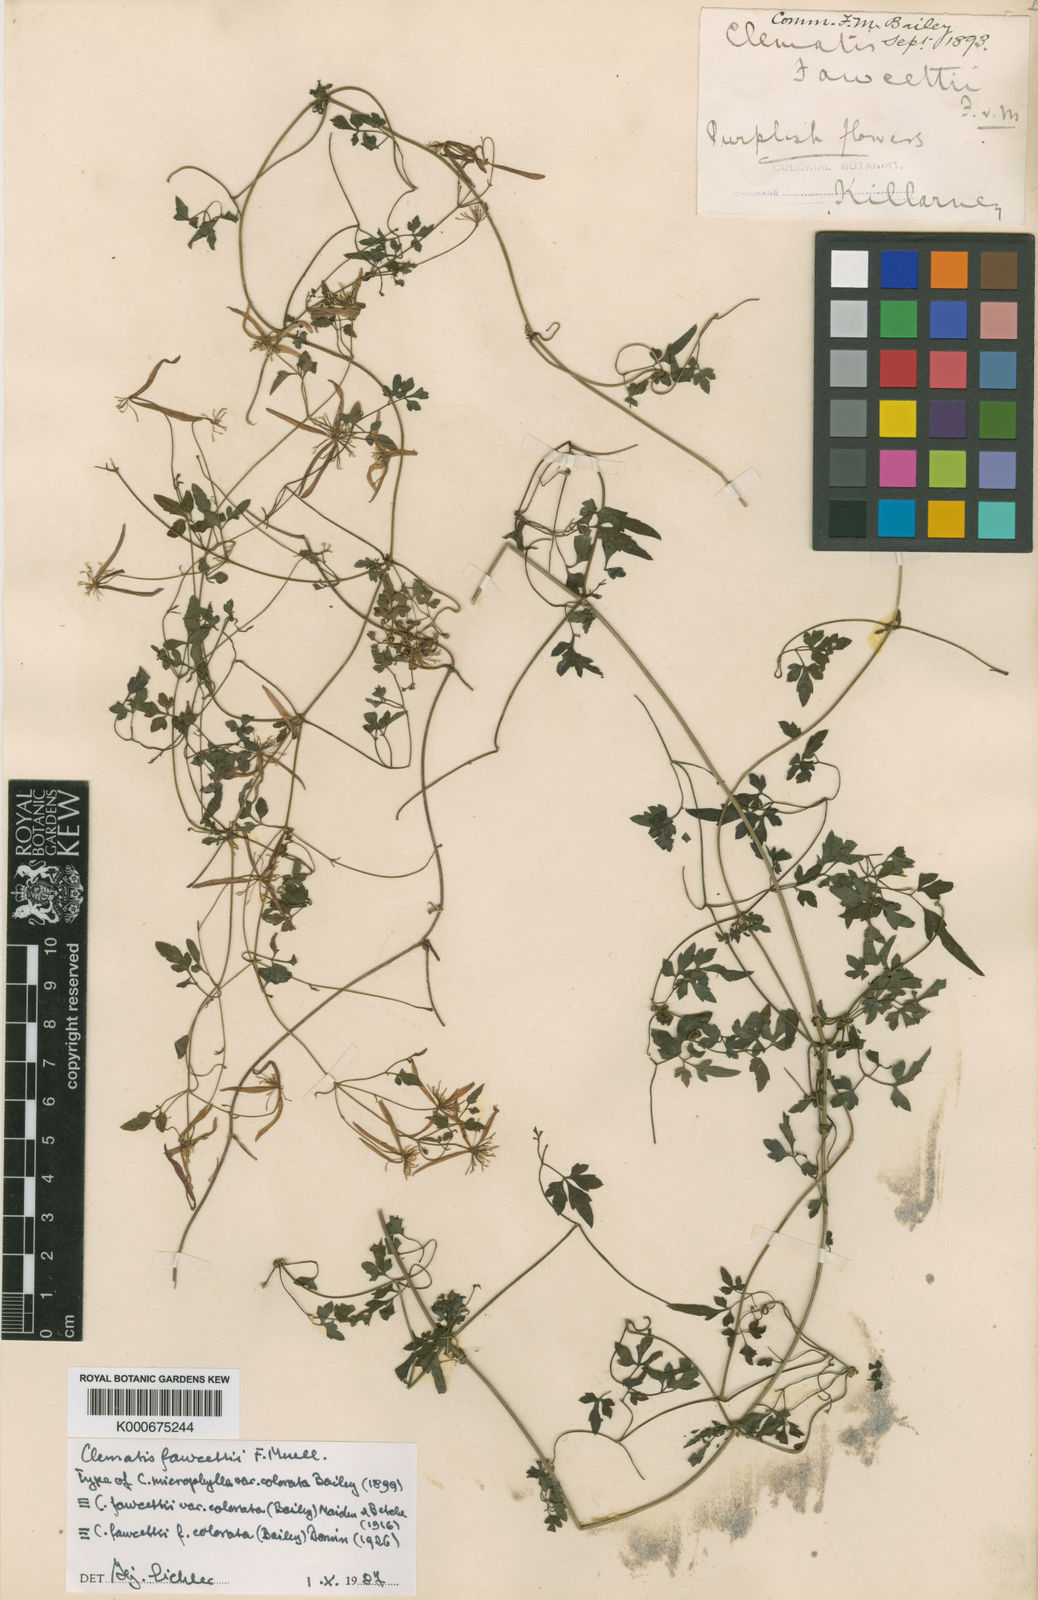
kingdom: Plantae
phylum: Tracheophyta
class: Magnoliopsida
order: Ranunculales
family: Ranunculaceae
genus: Clematis
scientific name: Clematis fawcettii
